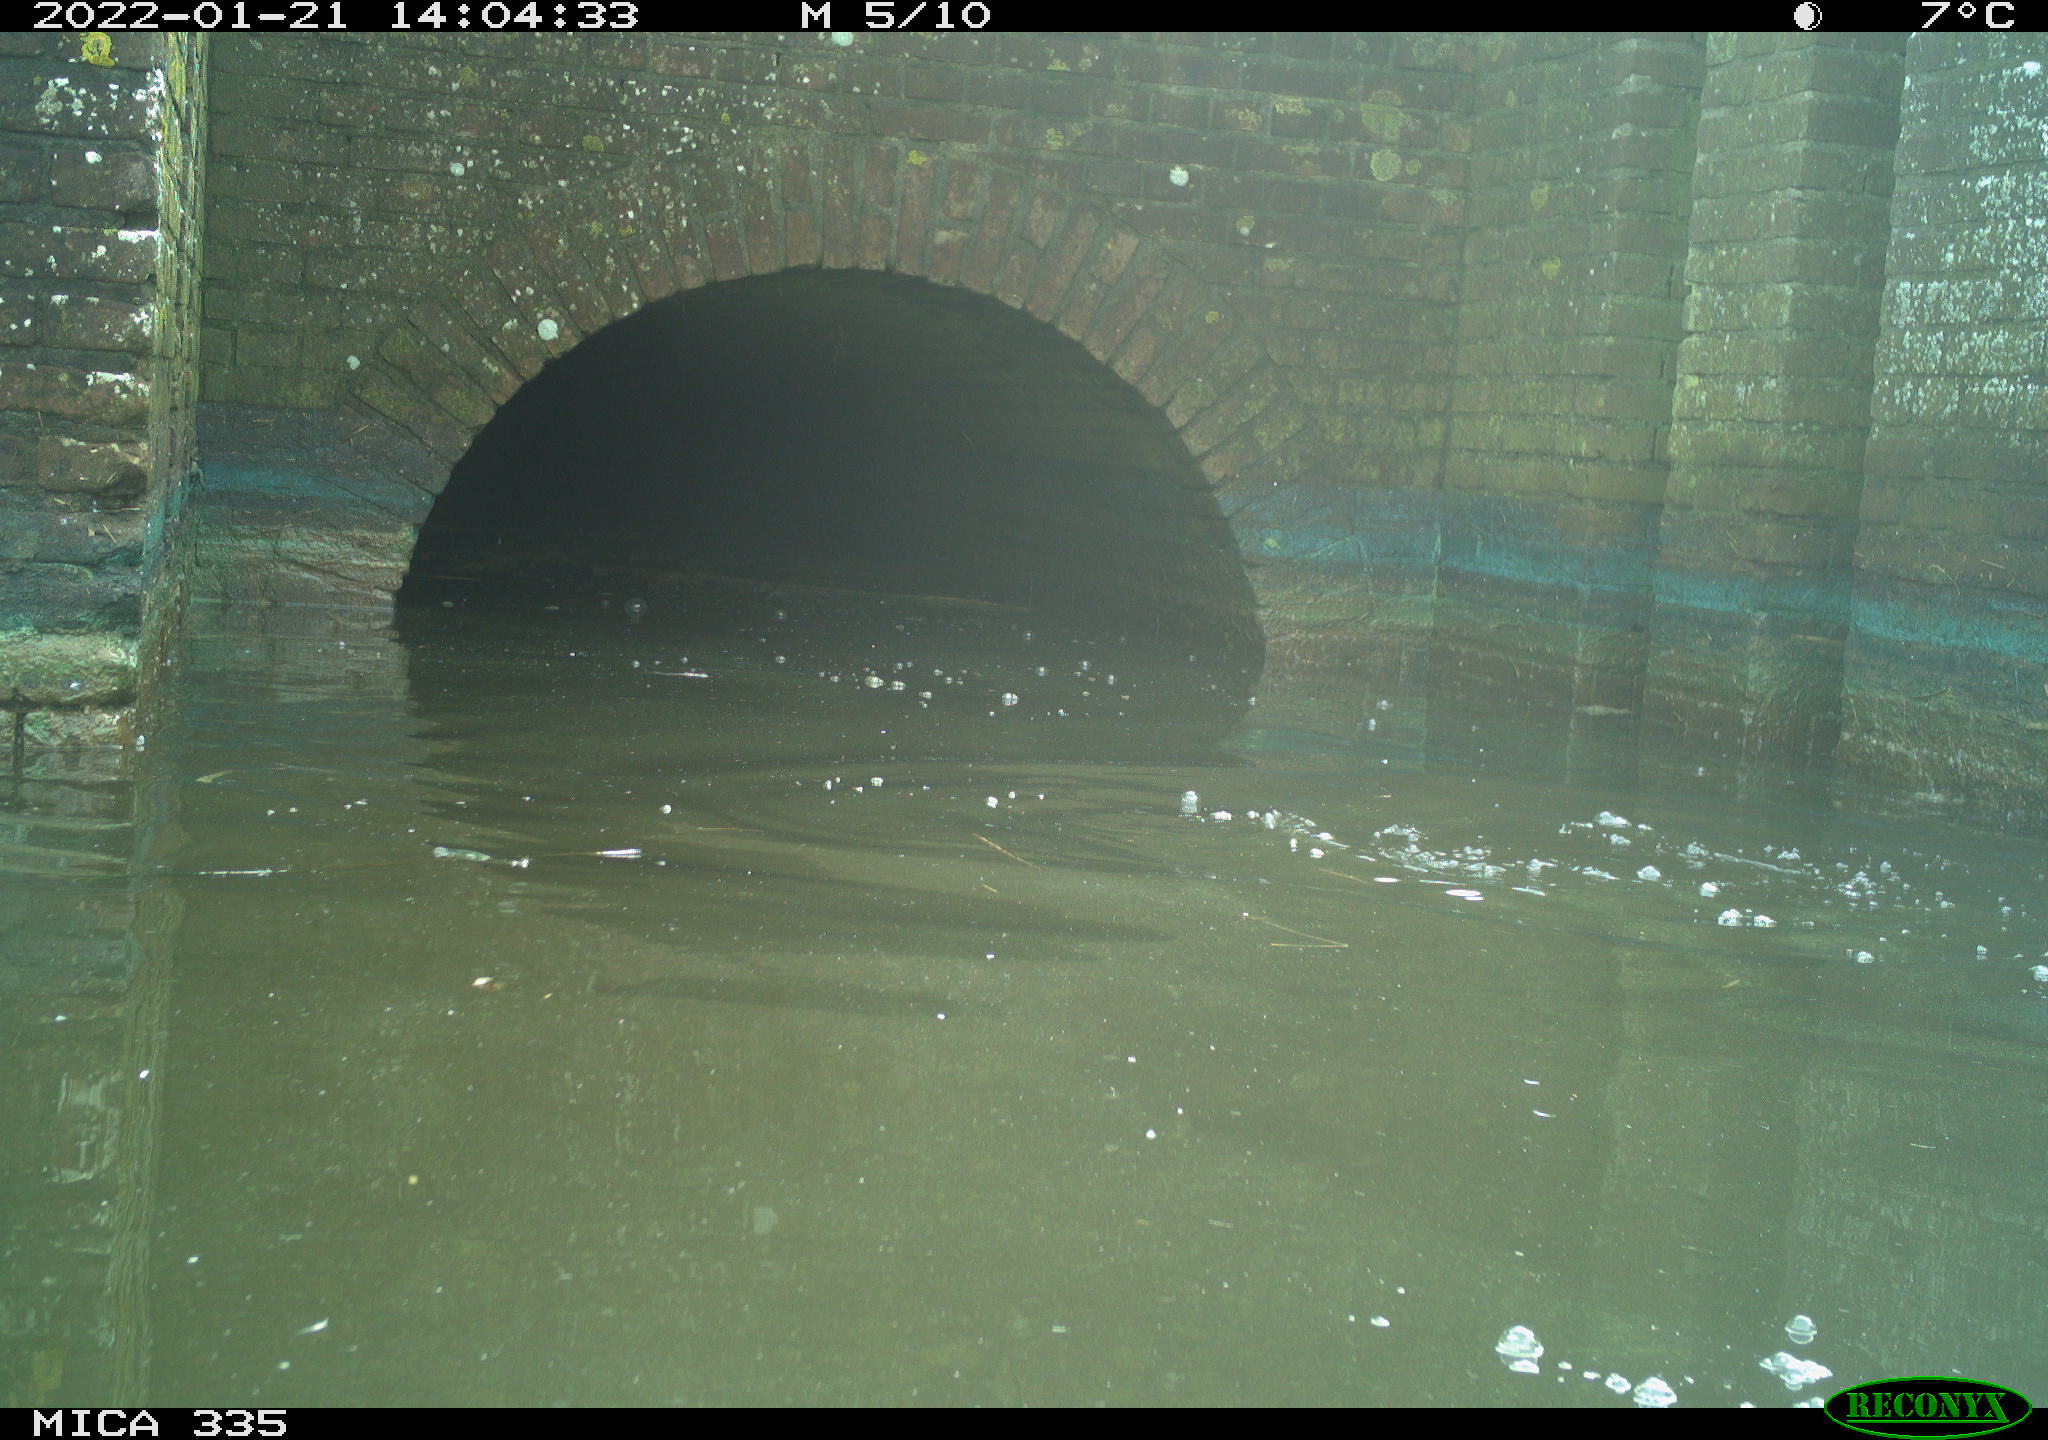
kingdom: Animalia
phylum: Chordata
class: Aves
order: Suliformes
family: Phalacrocoracidae
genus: Phalacrocorax
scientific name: Phalacrocorax carbo
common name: Great cormorant
